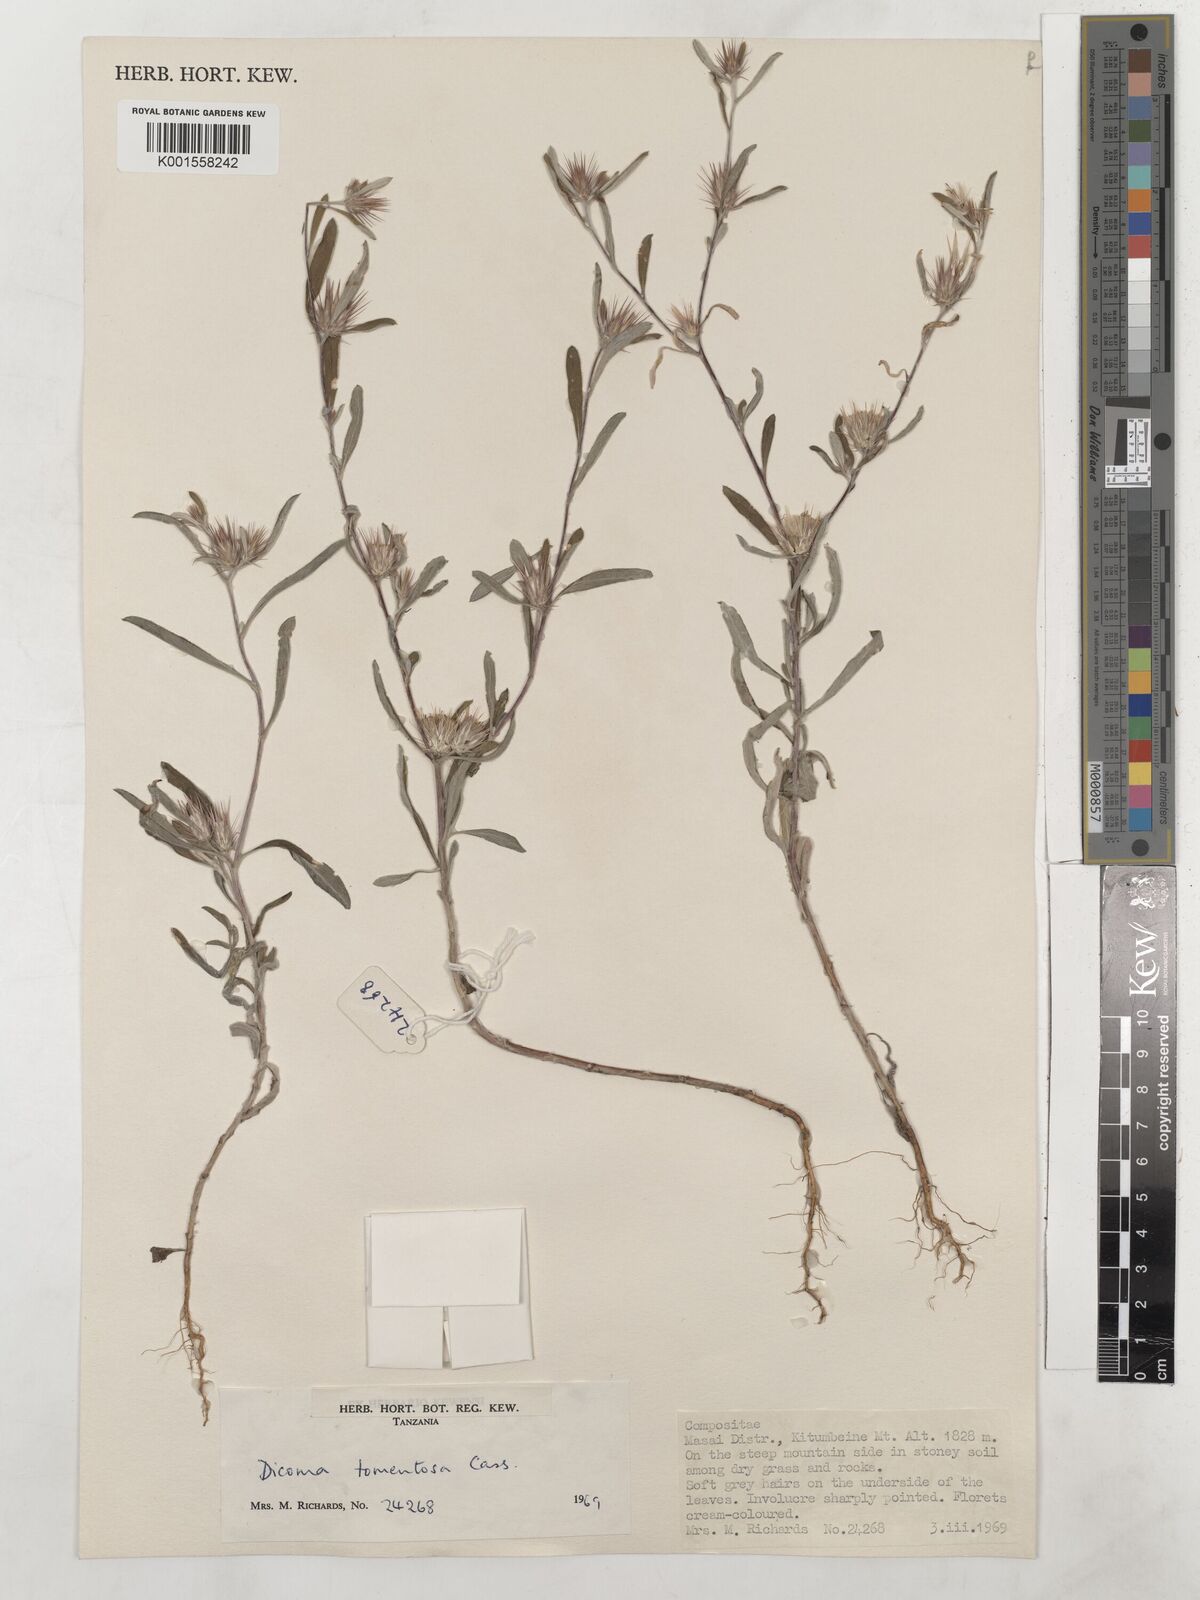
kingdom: Plantae
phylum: Tracheophyta
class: Magnoliopsida
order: Asterales
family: Asteraceae
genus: Dicoma
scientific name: Dicoma tomentosa
